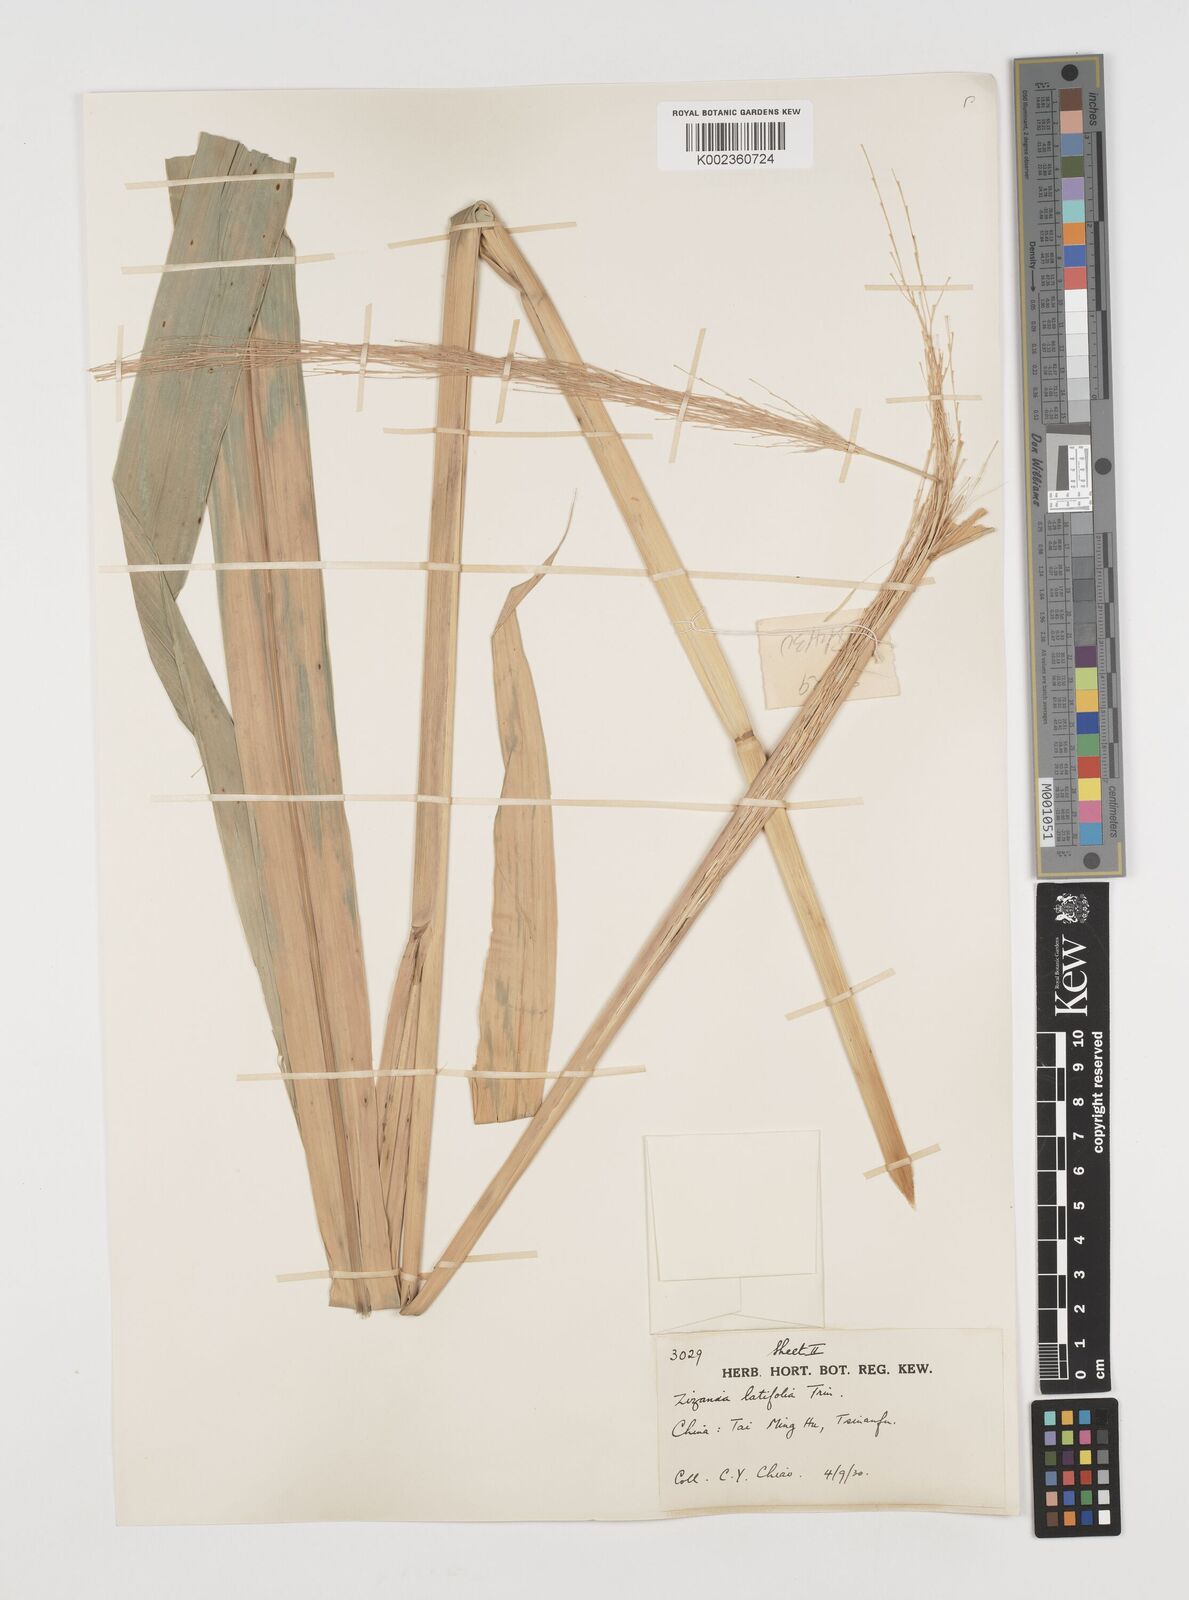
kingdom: Plantae
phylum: Tracheophyta
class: Liliopsida
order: Poales
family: Poaceae
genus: Zizania
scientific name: Zizania latifolia
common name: Manchurian wildrice
